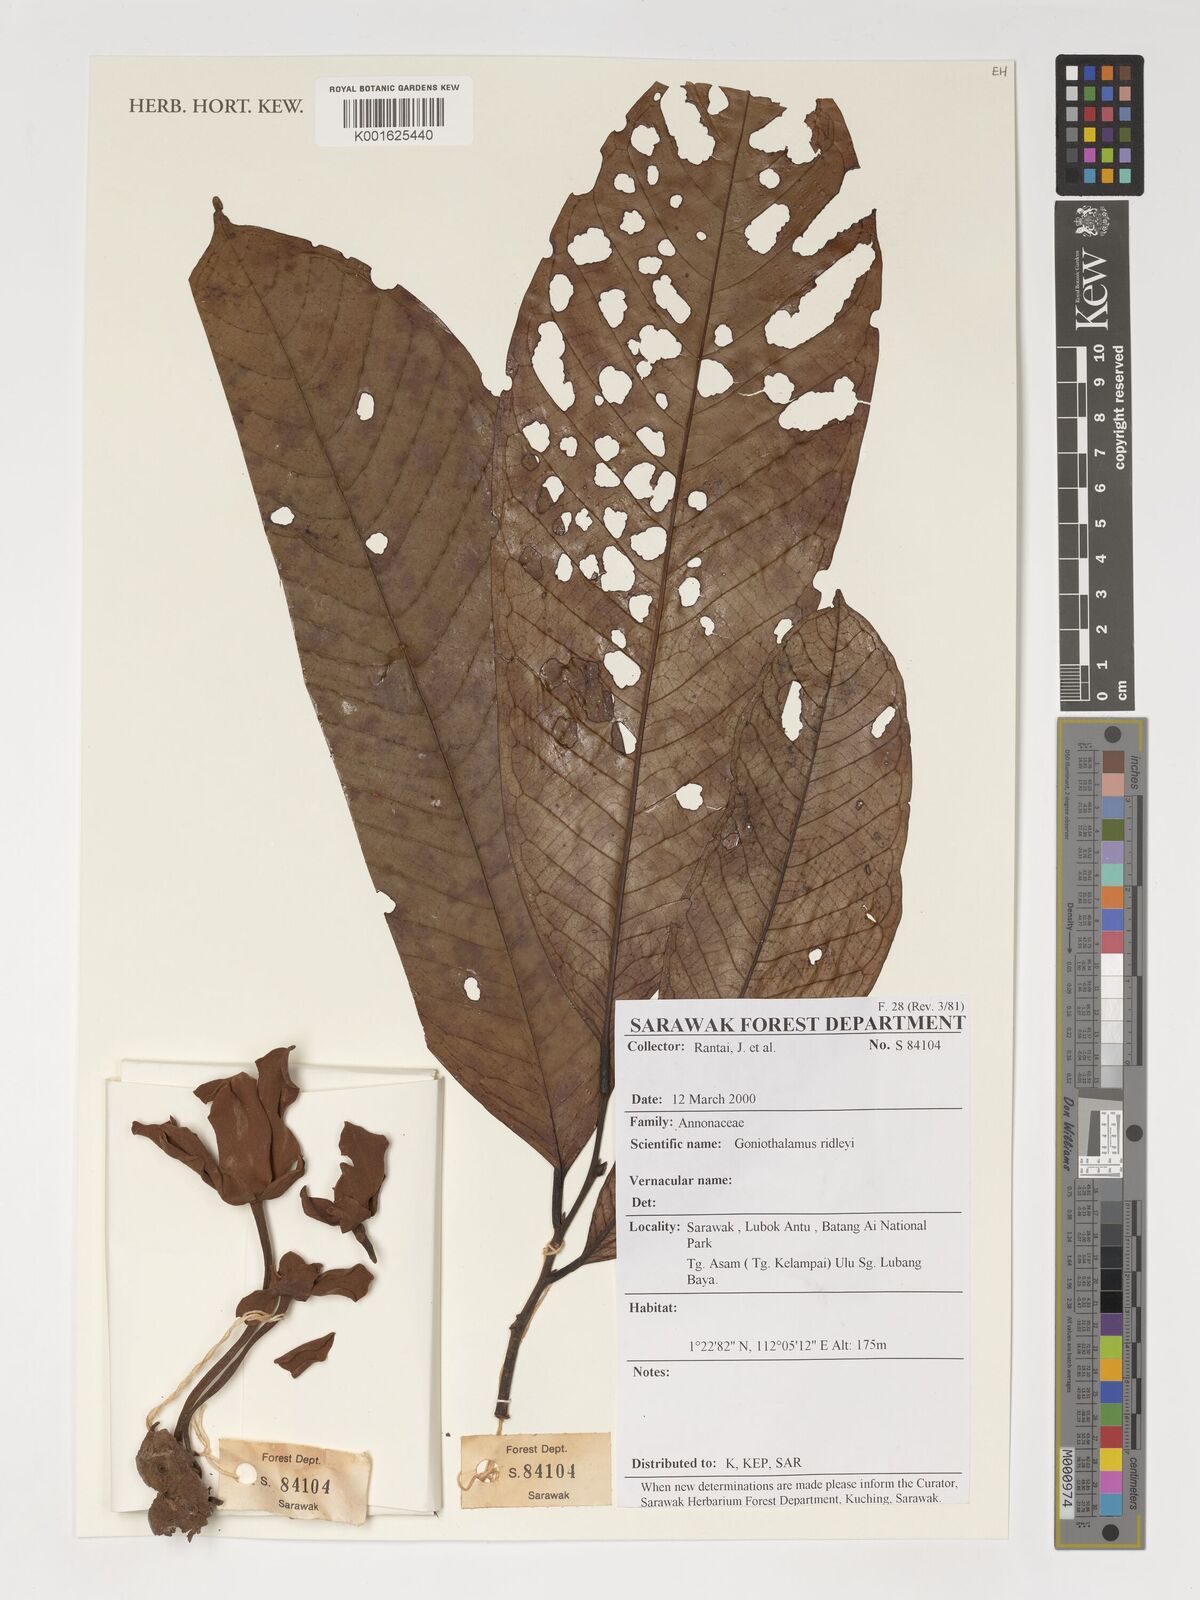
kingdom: Plantae
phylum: Tracheophyta
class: Magnoliopsida
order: Magnoliales
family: Annonaceae
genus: Goniothalamus
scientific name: Goniothalamus ridleyi
